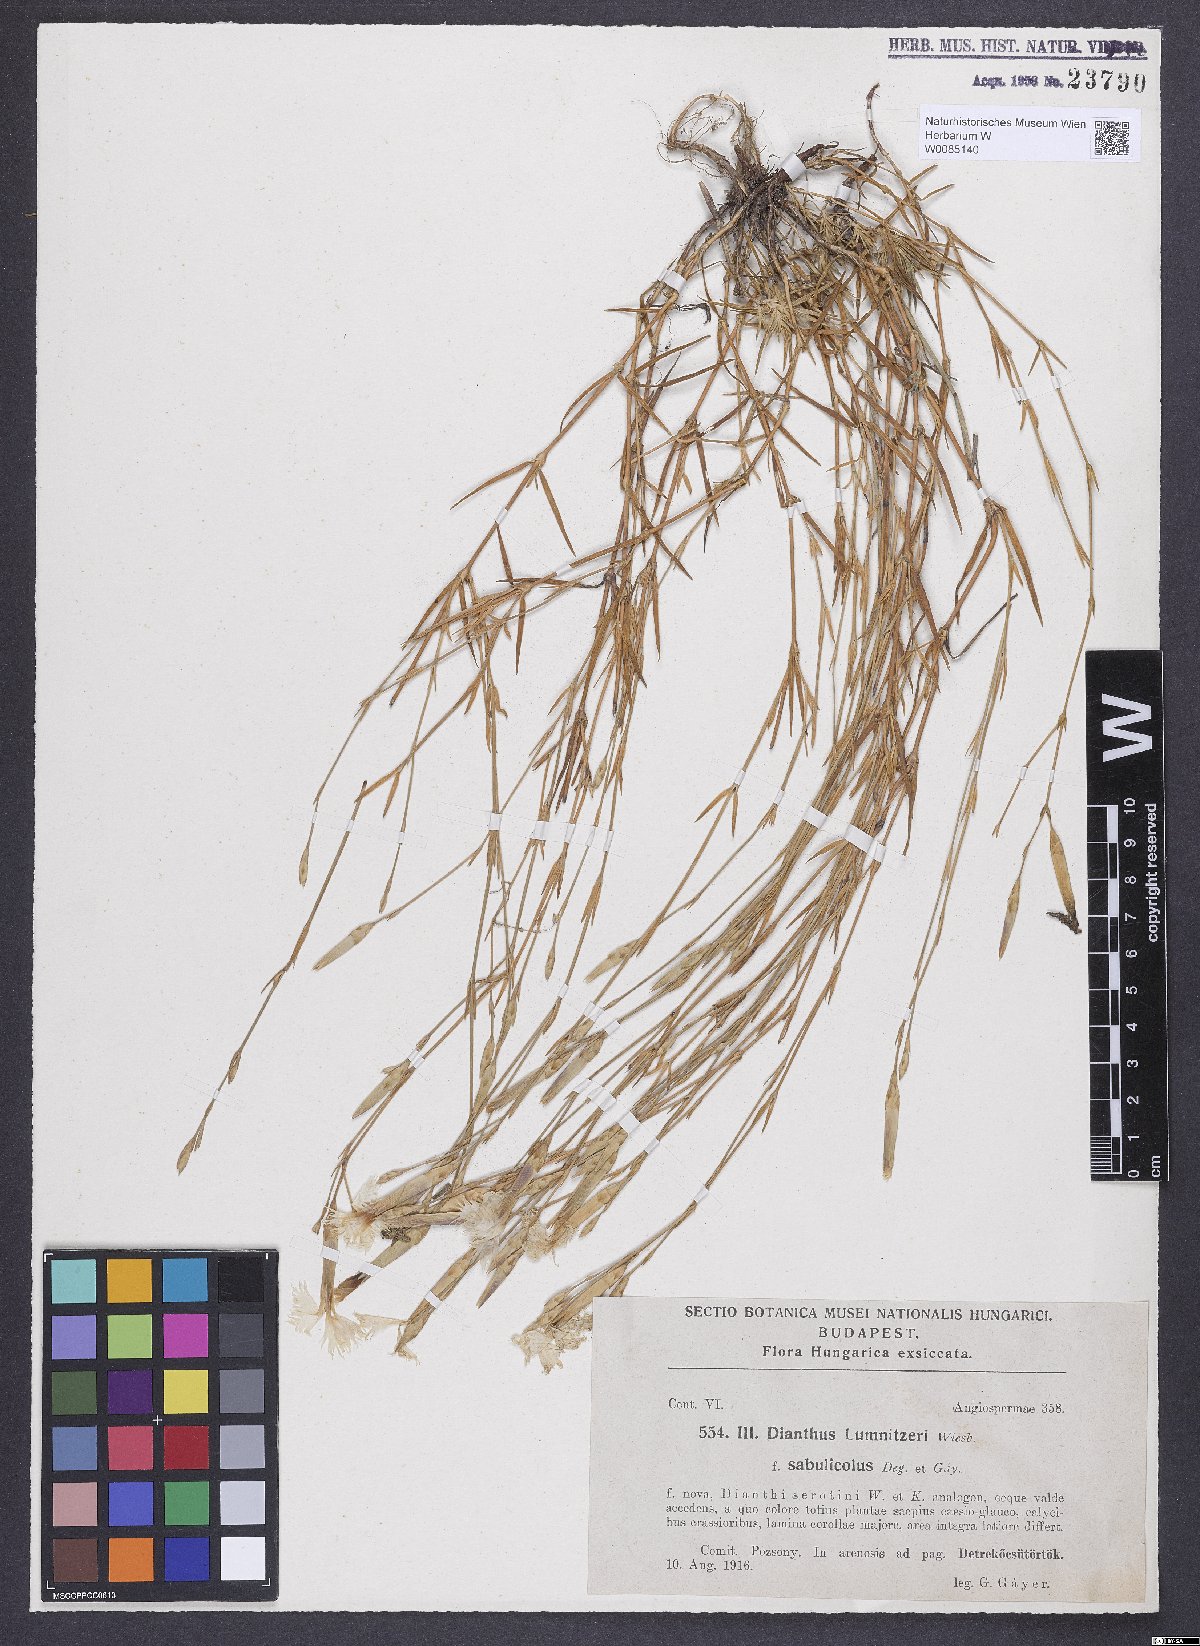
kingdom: Plantae
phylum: Tracheophyta
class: Magnoliopsida
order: Caryophyllales
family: Caryophyllaceae
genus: Dianthus
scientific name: Dianthus praecox
